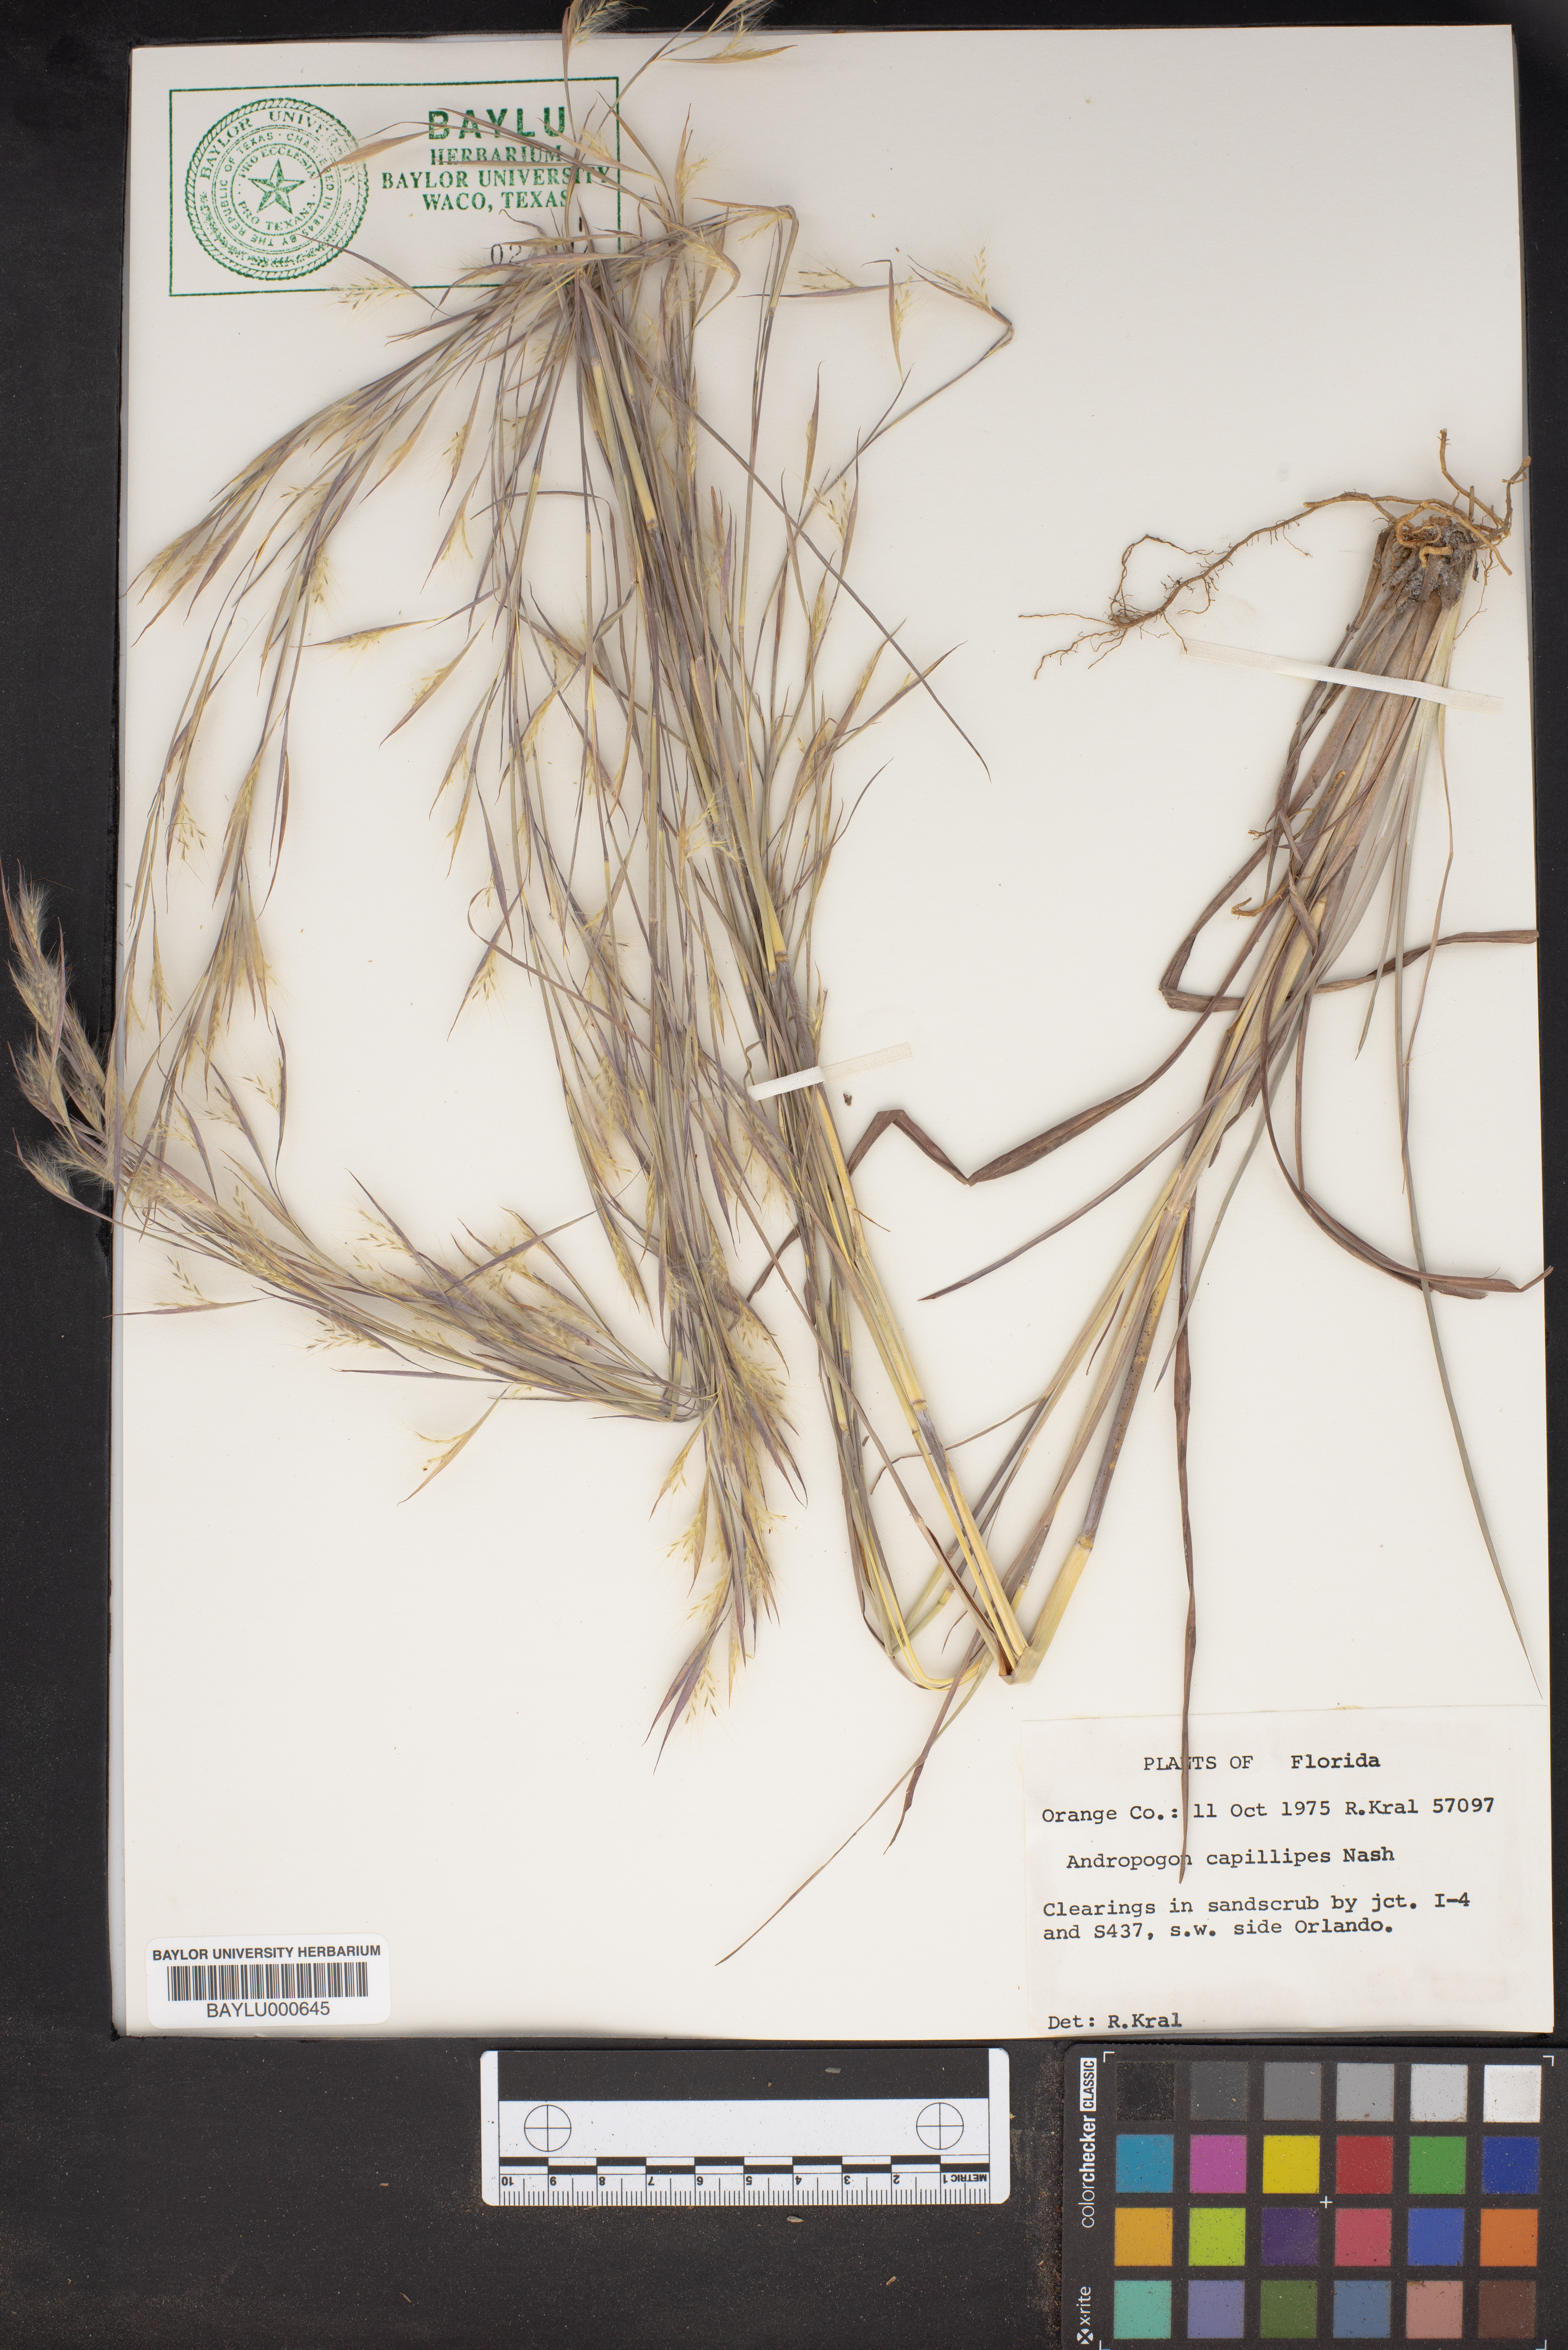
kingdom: Plantae
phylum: Tracheophyta
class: Liliopsida
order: Poales
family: Poaceae
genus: Andropogon
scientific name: Andropogon capillipes
